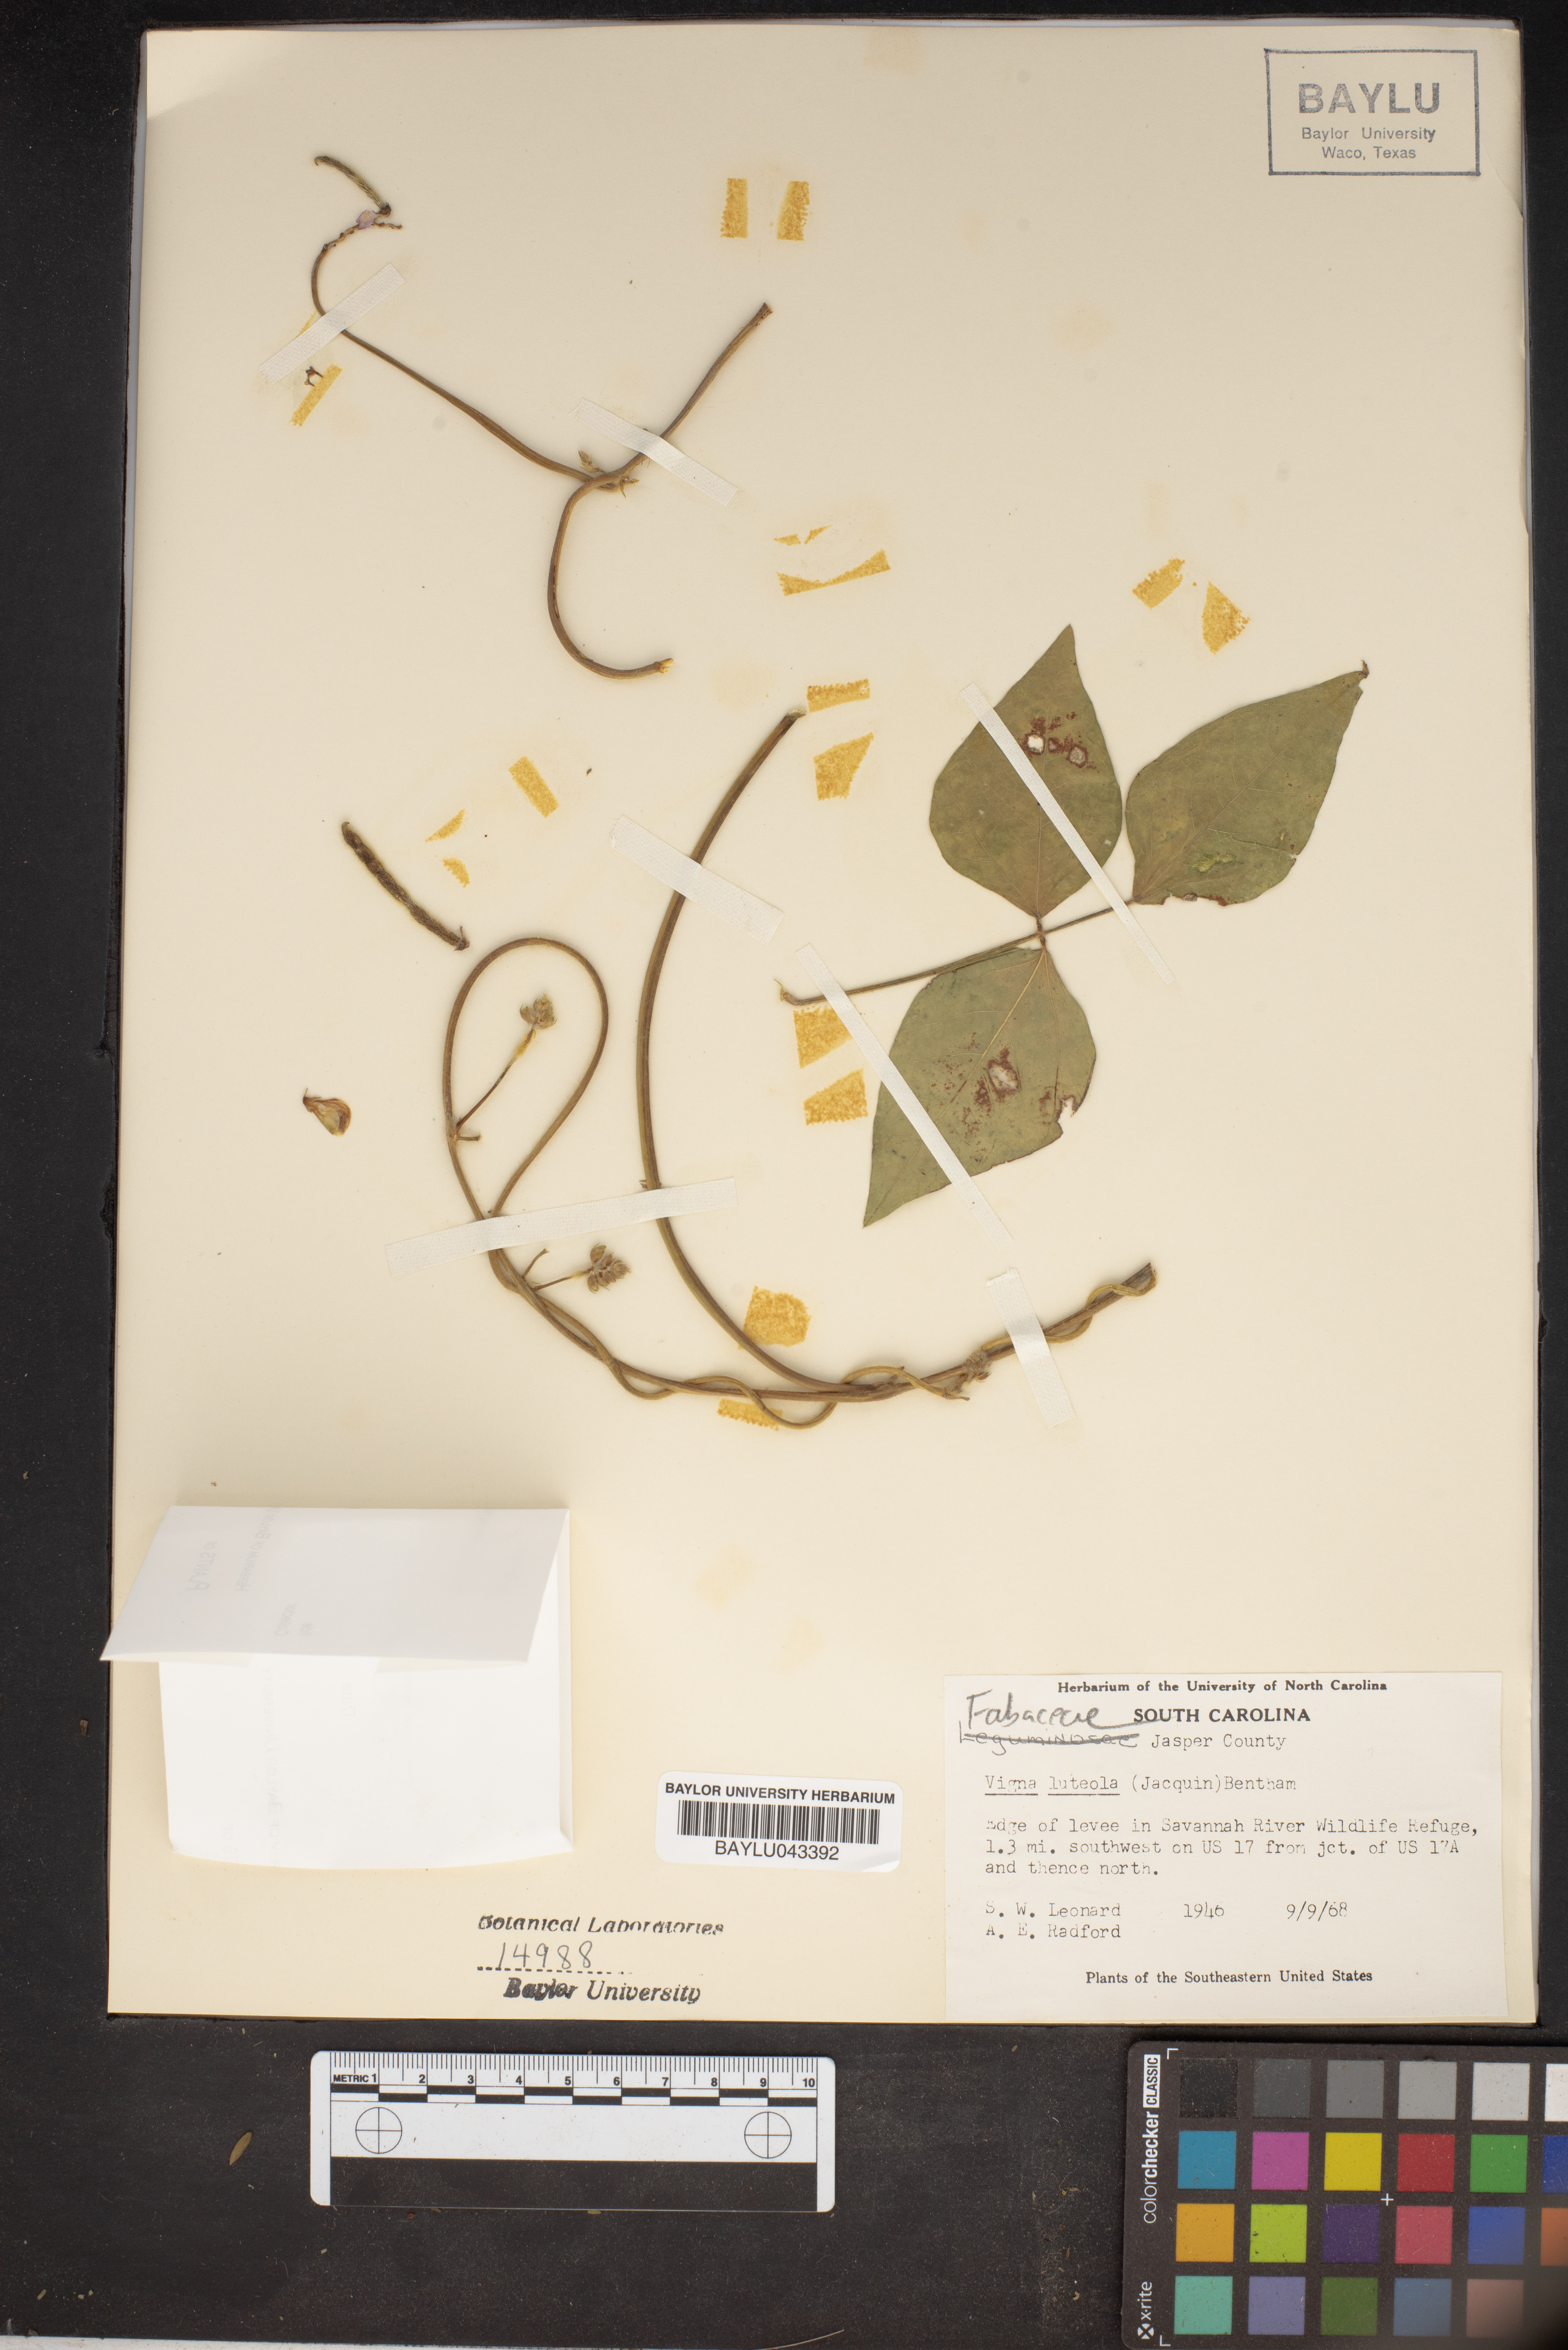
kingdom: Plantae
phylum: Tracheophyta
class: Magnoliopsida
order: Fabales
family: Fabaceae
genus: Vigna
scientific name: Vigna luteola
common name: Hairypod cowpea
